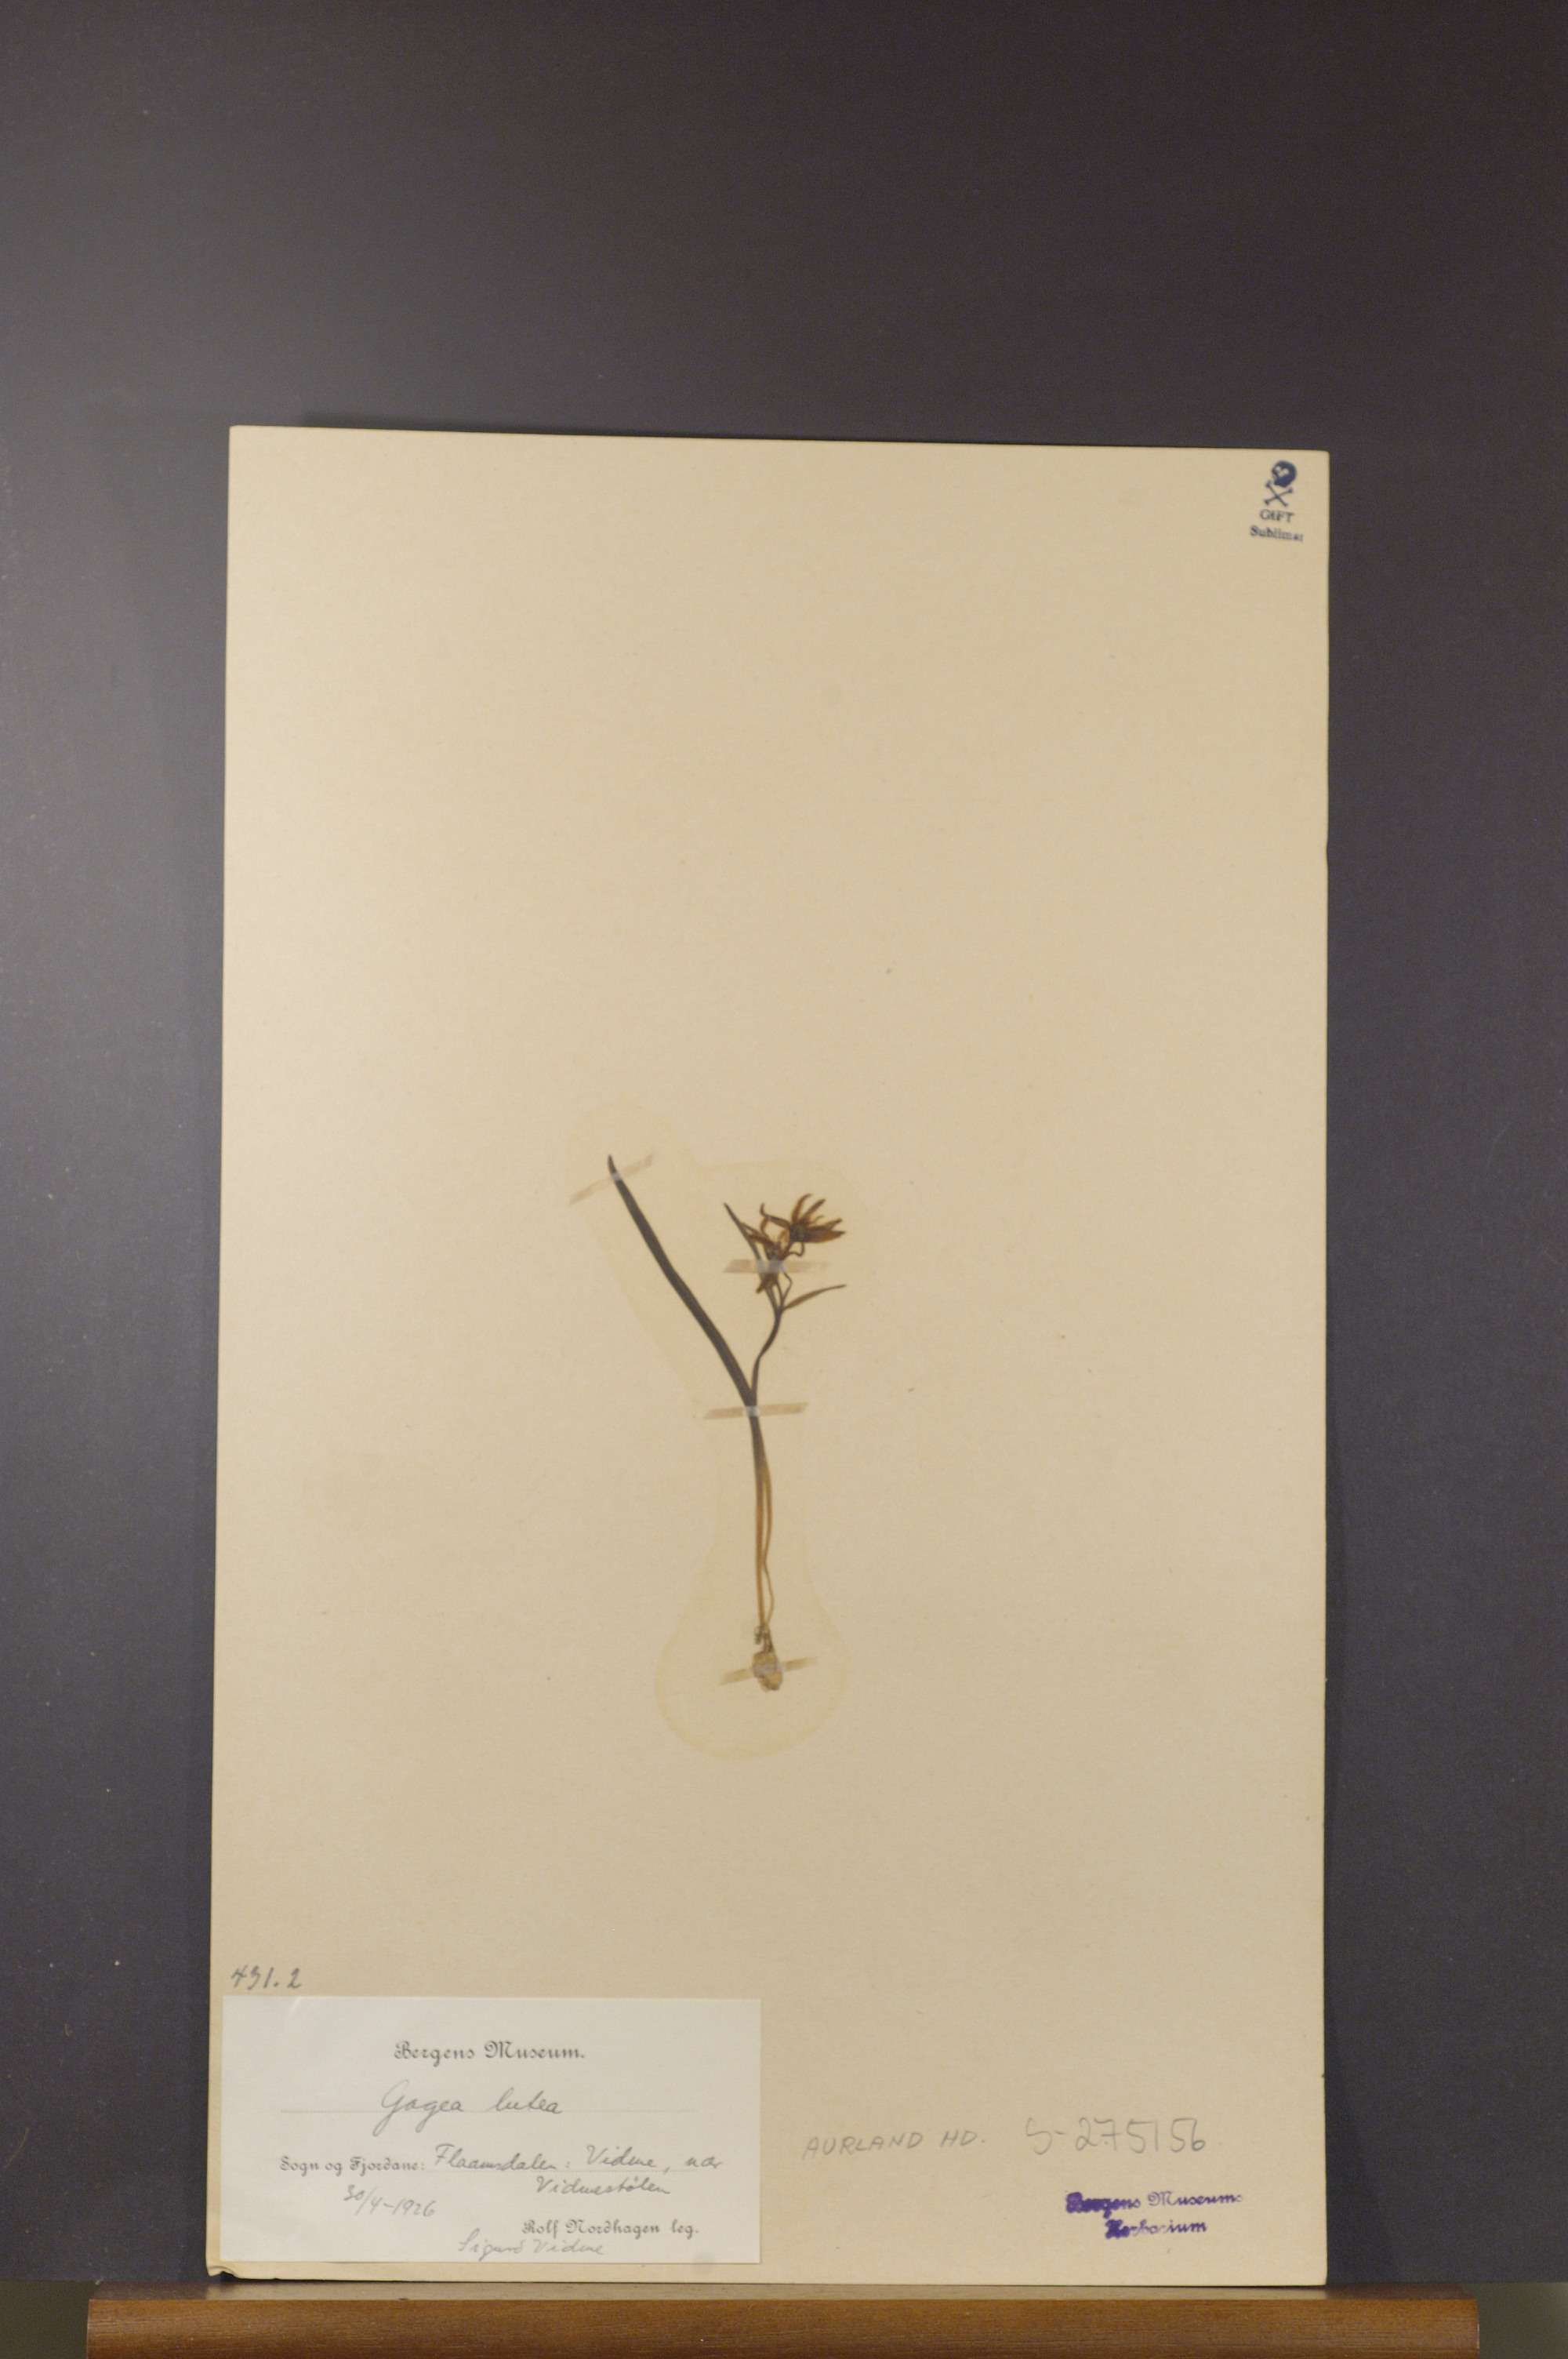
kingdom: Plantae
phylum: Tracheophyta
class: Liliopsida
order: Liliales
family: Liliaceae
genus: Gagea
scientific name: Gagea lutea
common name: Yellow star-of-bethlehem
